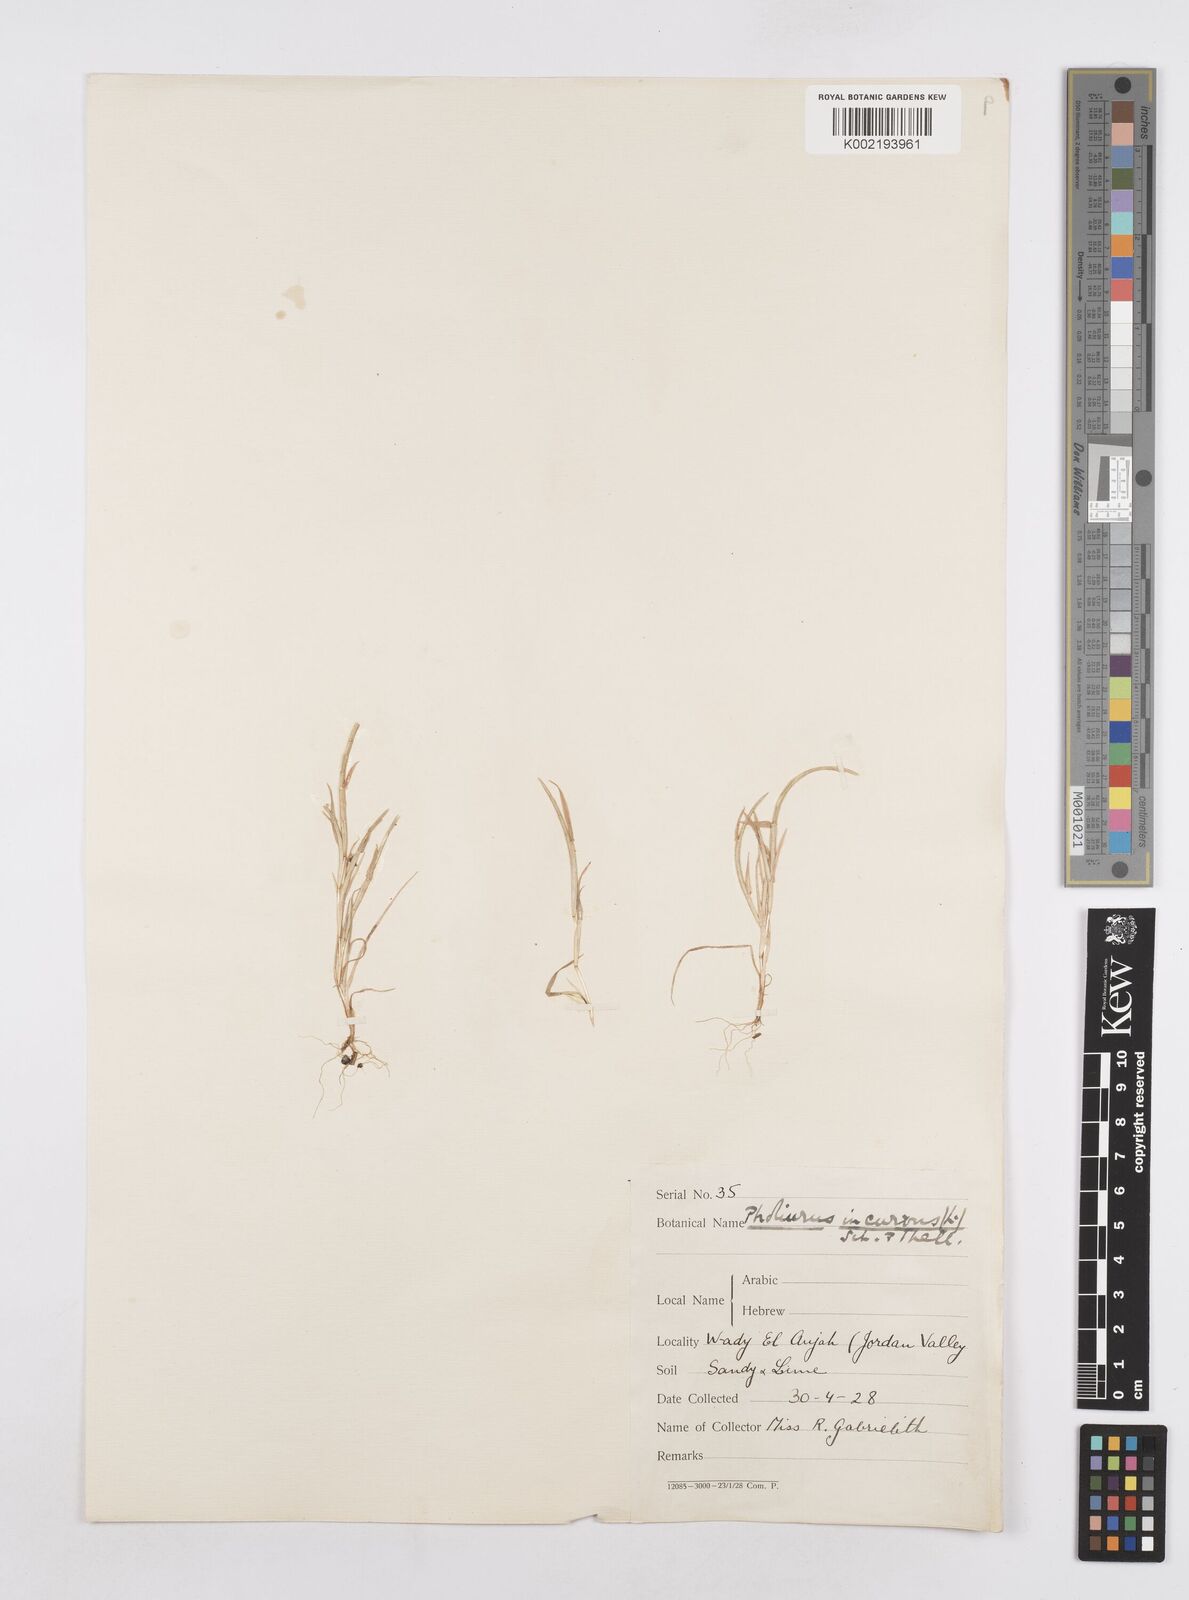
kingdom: Plantae
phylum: Tracheophyta
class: Liliopsida
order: Poales
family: Poaceae
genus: Parapholis
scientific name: Parapholis incurva
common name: Curved sicklegrass
